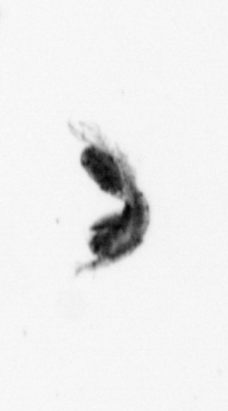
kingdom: Animalia
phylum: Arthropoda
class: Copepoda
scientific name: Copepoda
